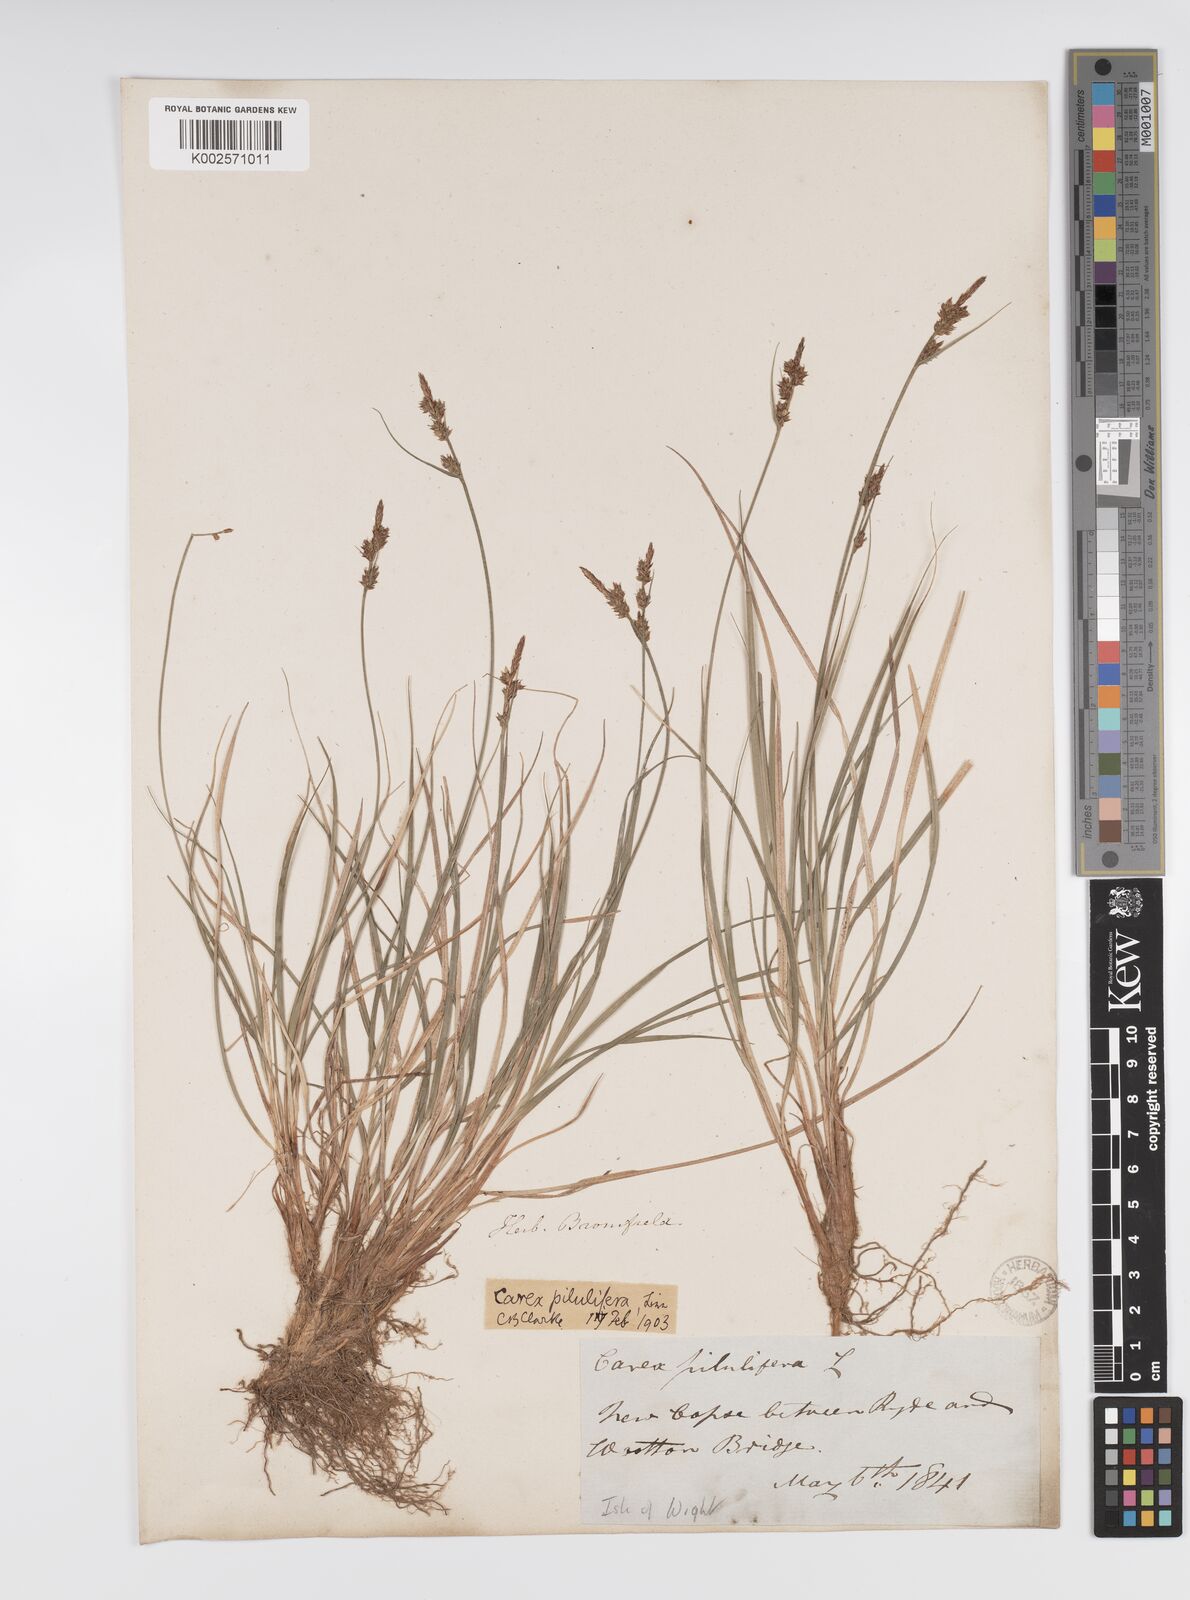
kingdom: Plantae
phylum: Tracheophyta
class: Liliopsida
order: Poales
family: Cyperaceae
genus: Carex
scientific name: Carex praecox
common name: Early sedge
